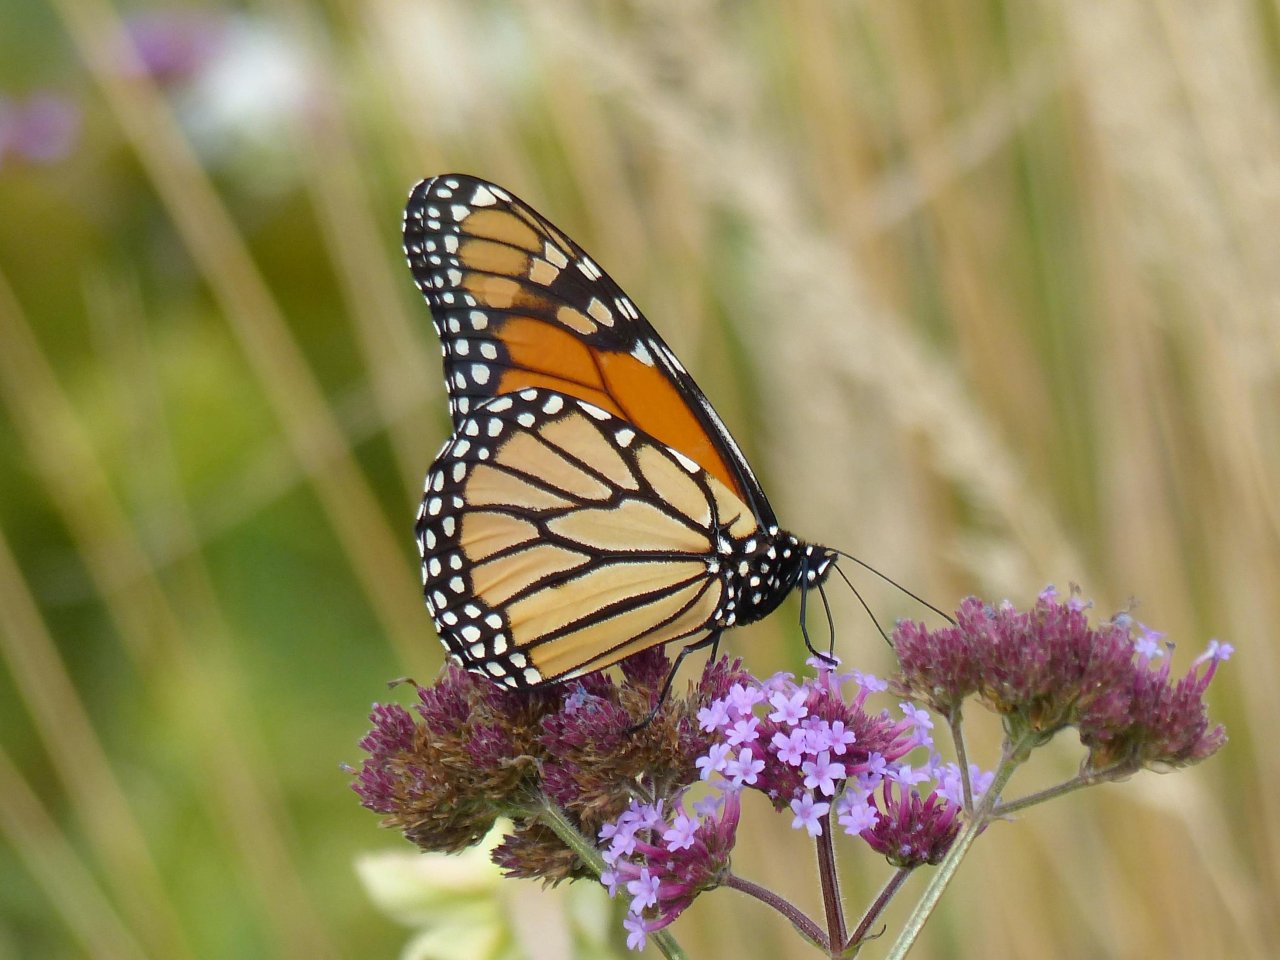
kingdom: Animalia
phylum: Arthropoda
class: Insecta
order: Lepidoptera
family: Nymphalidae
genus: Danaus
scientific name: Danaus plexippus
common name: Monarch
